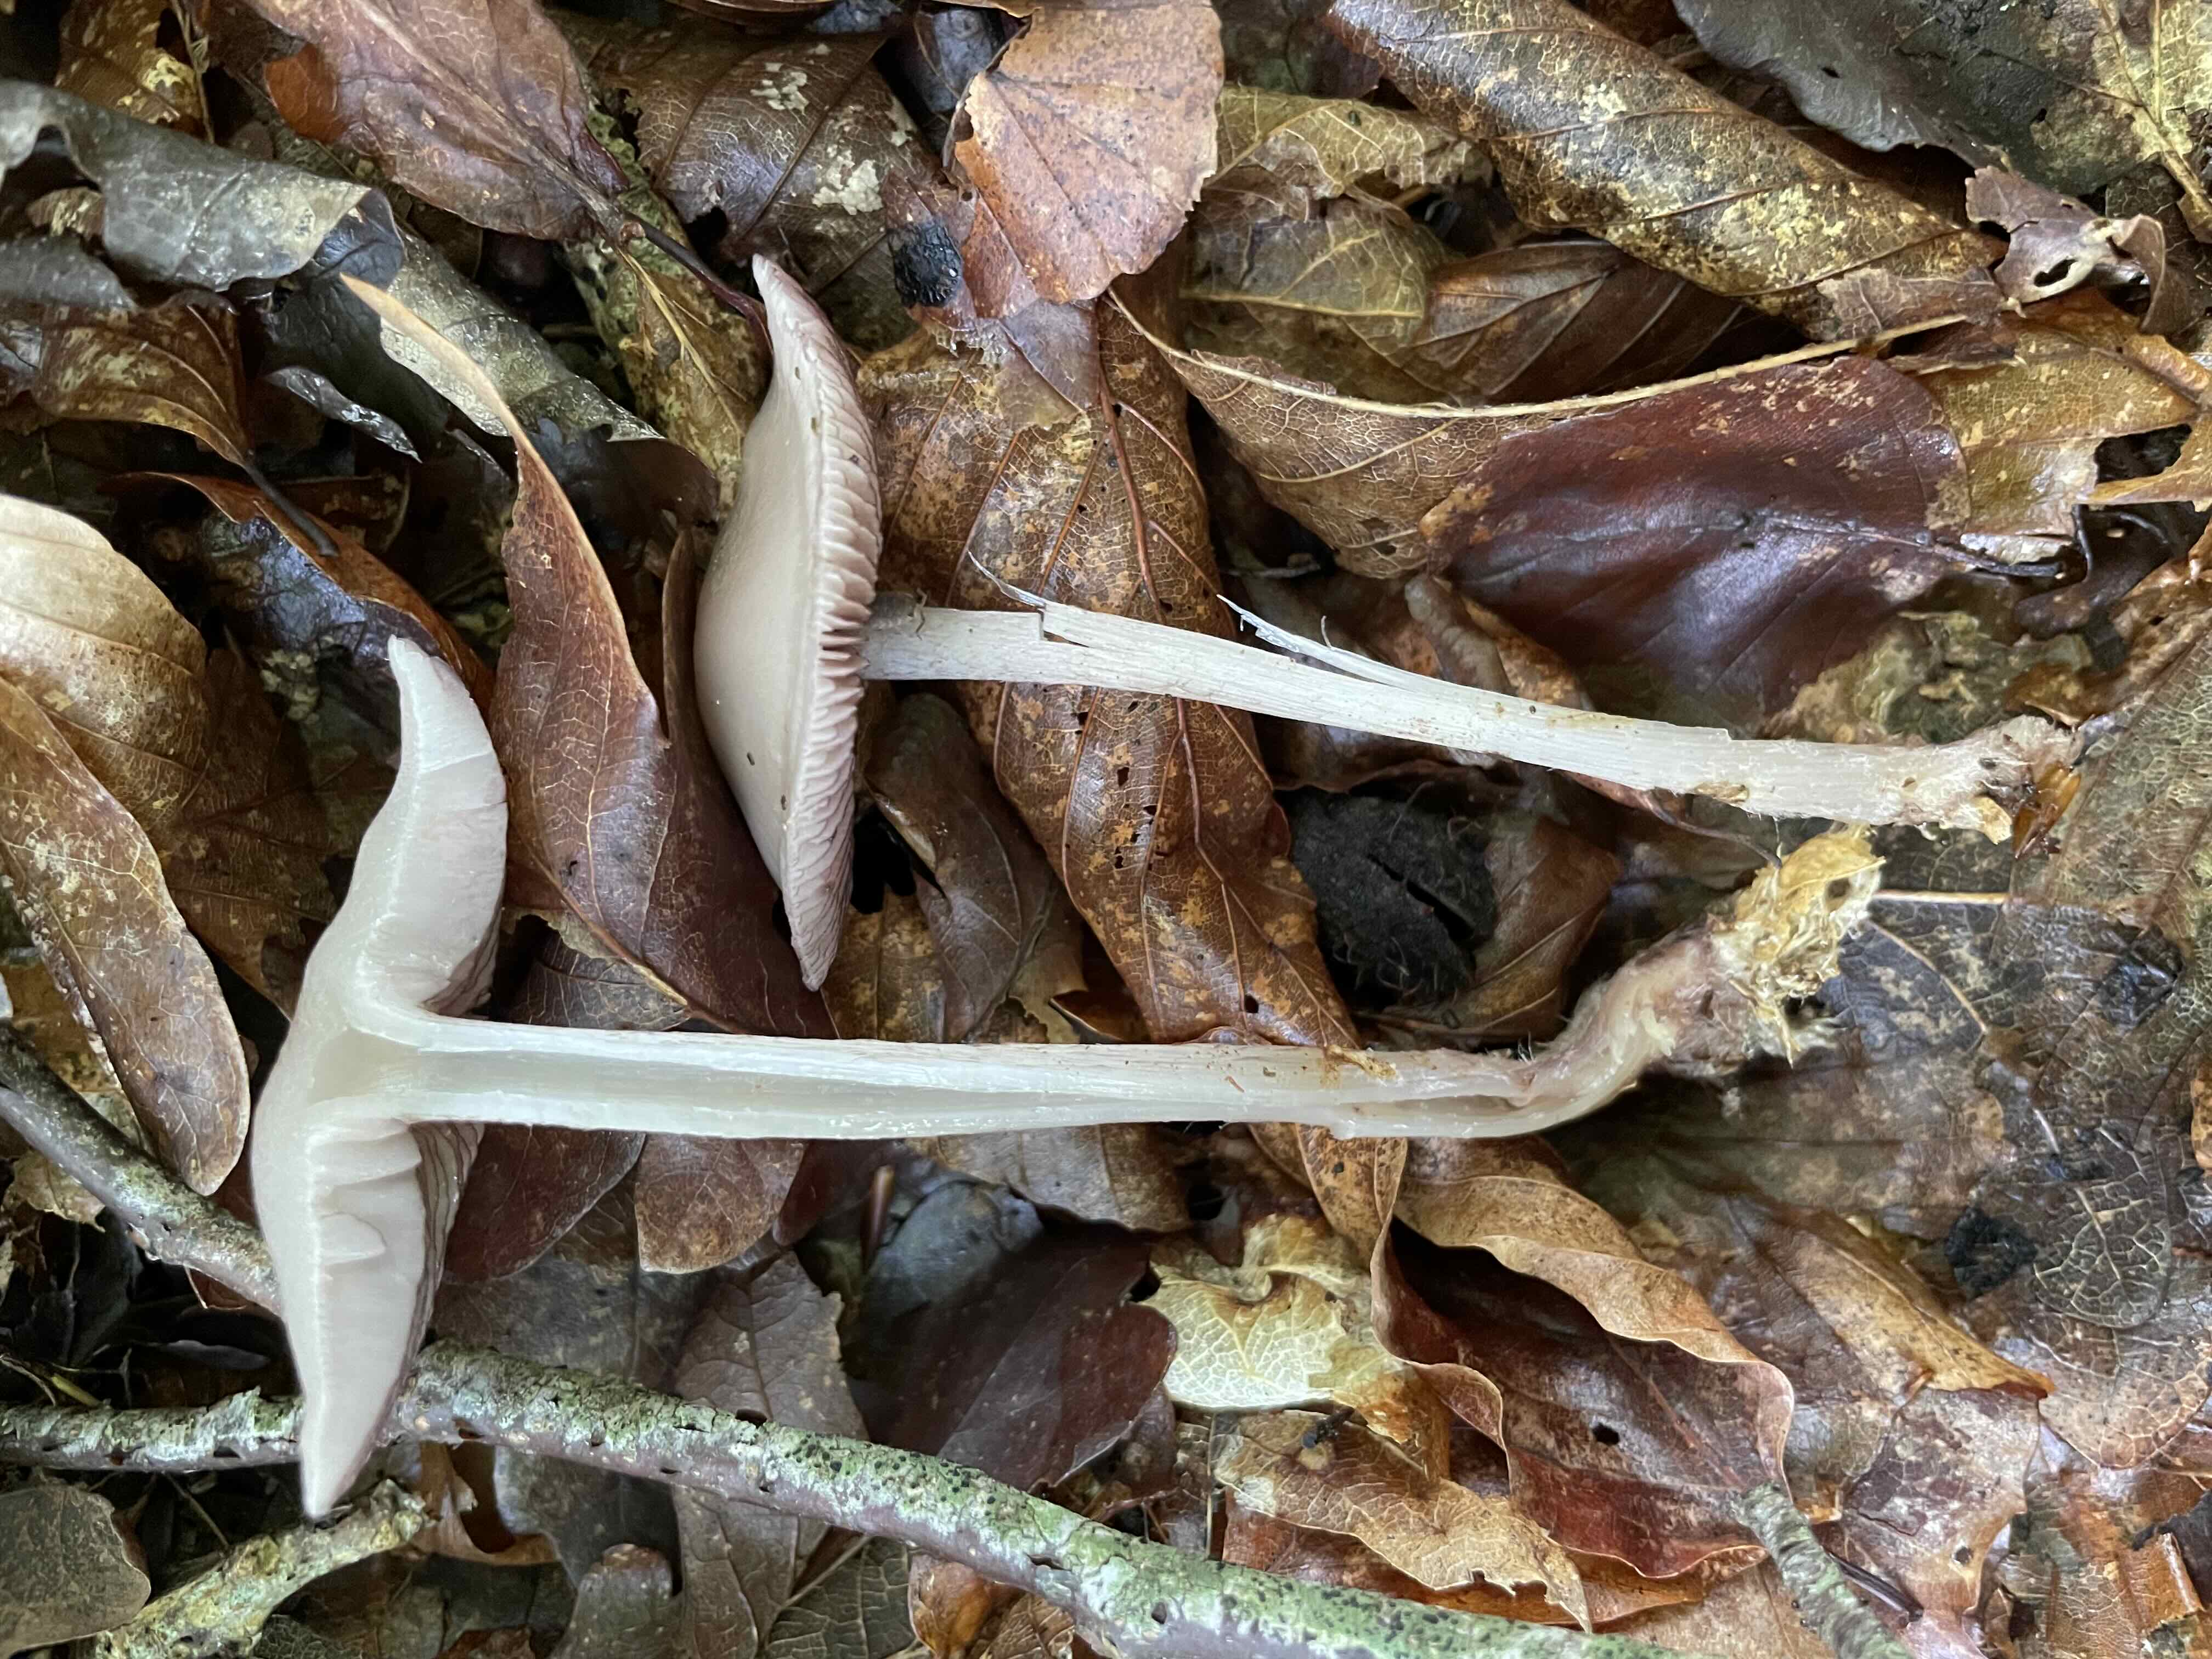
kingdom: Fungi
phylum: Basidiomycota
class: Agaricomycetes
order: Agaricales
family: Mycenaceae
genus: Mycena
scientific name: Mycena pelianthina
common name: mørkbladet huesvamp
